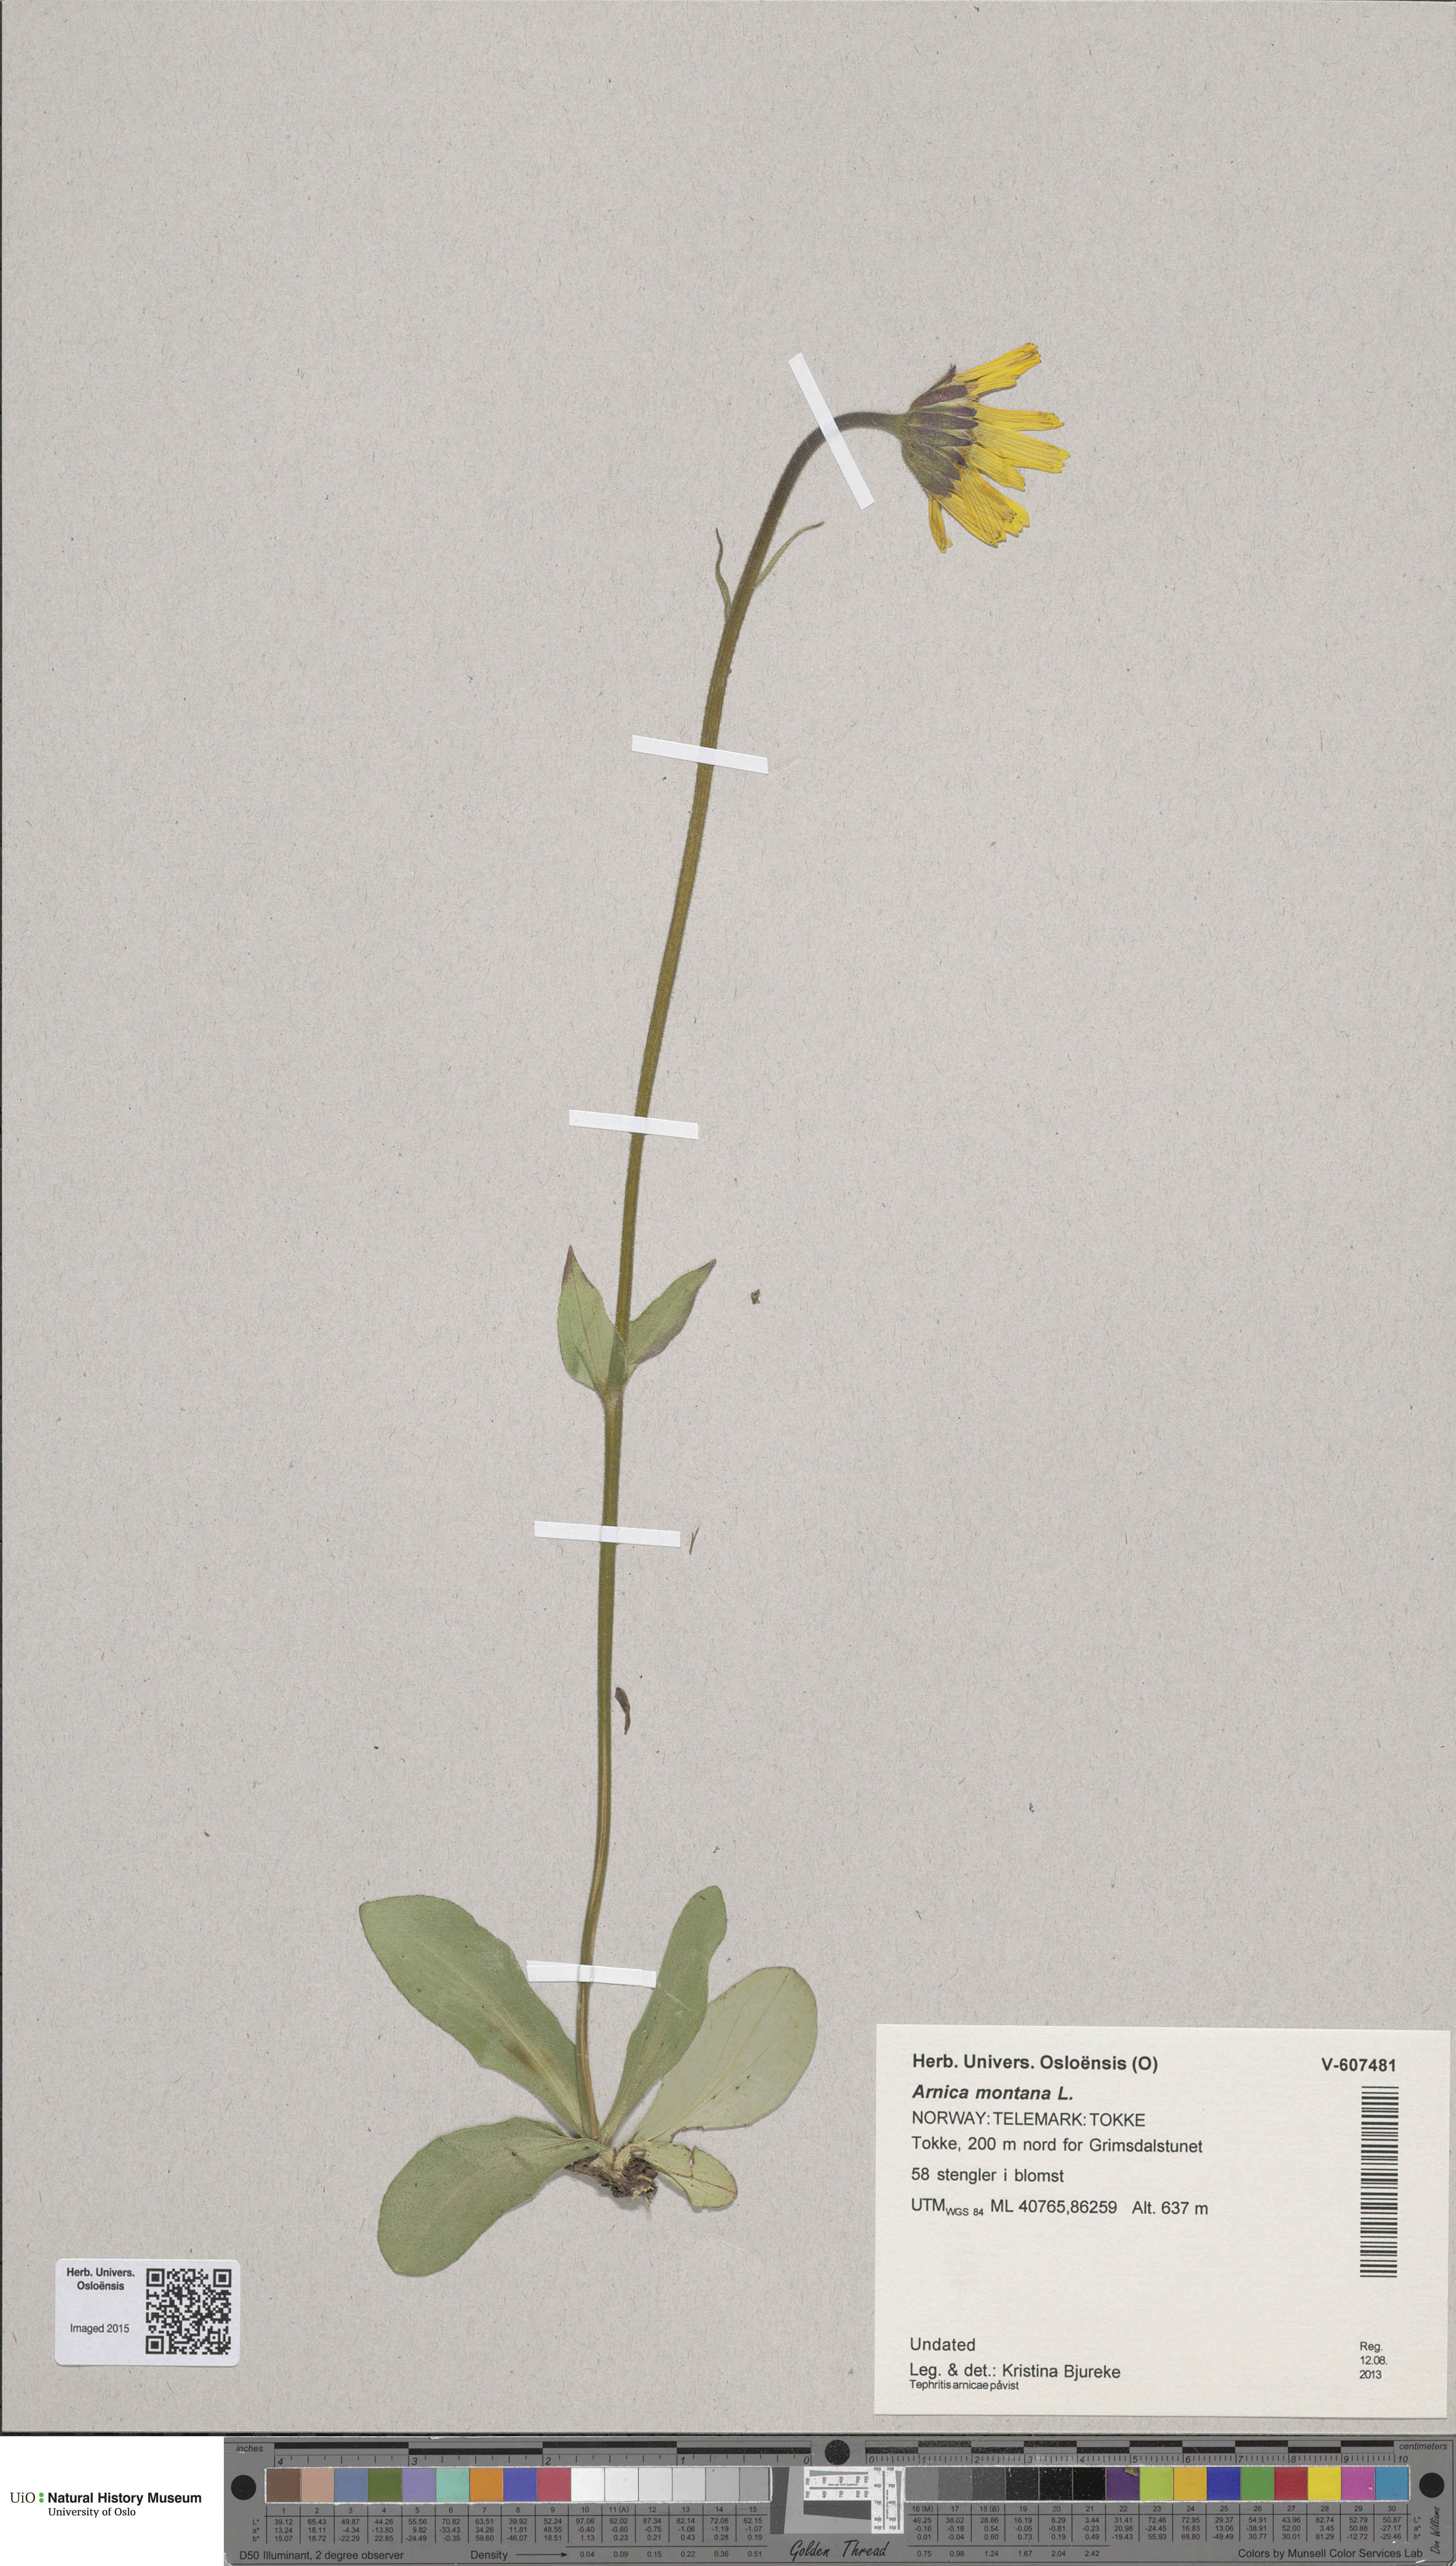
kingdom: Plantae
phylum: Tracheophyta
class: Magnoliopsida
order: Asterales
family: Asteraceae
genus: Arnica
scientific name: Arnica montana
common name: Leopard's bane
